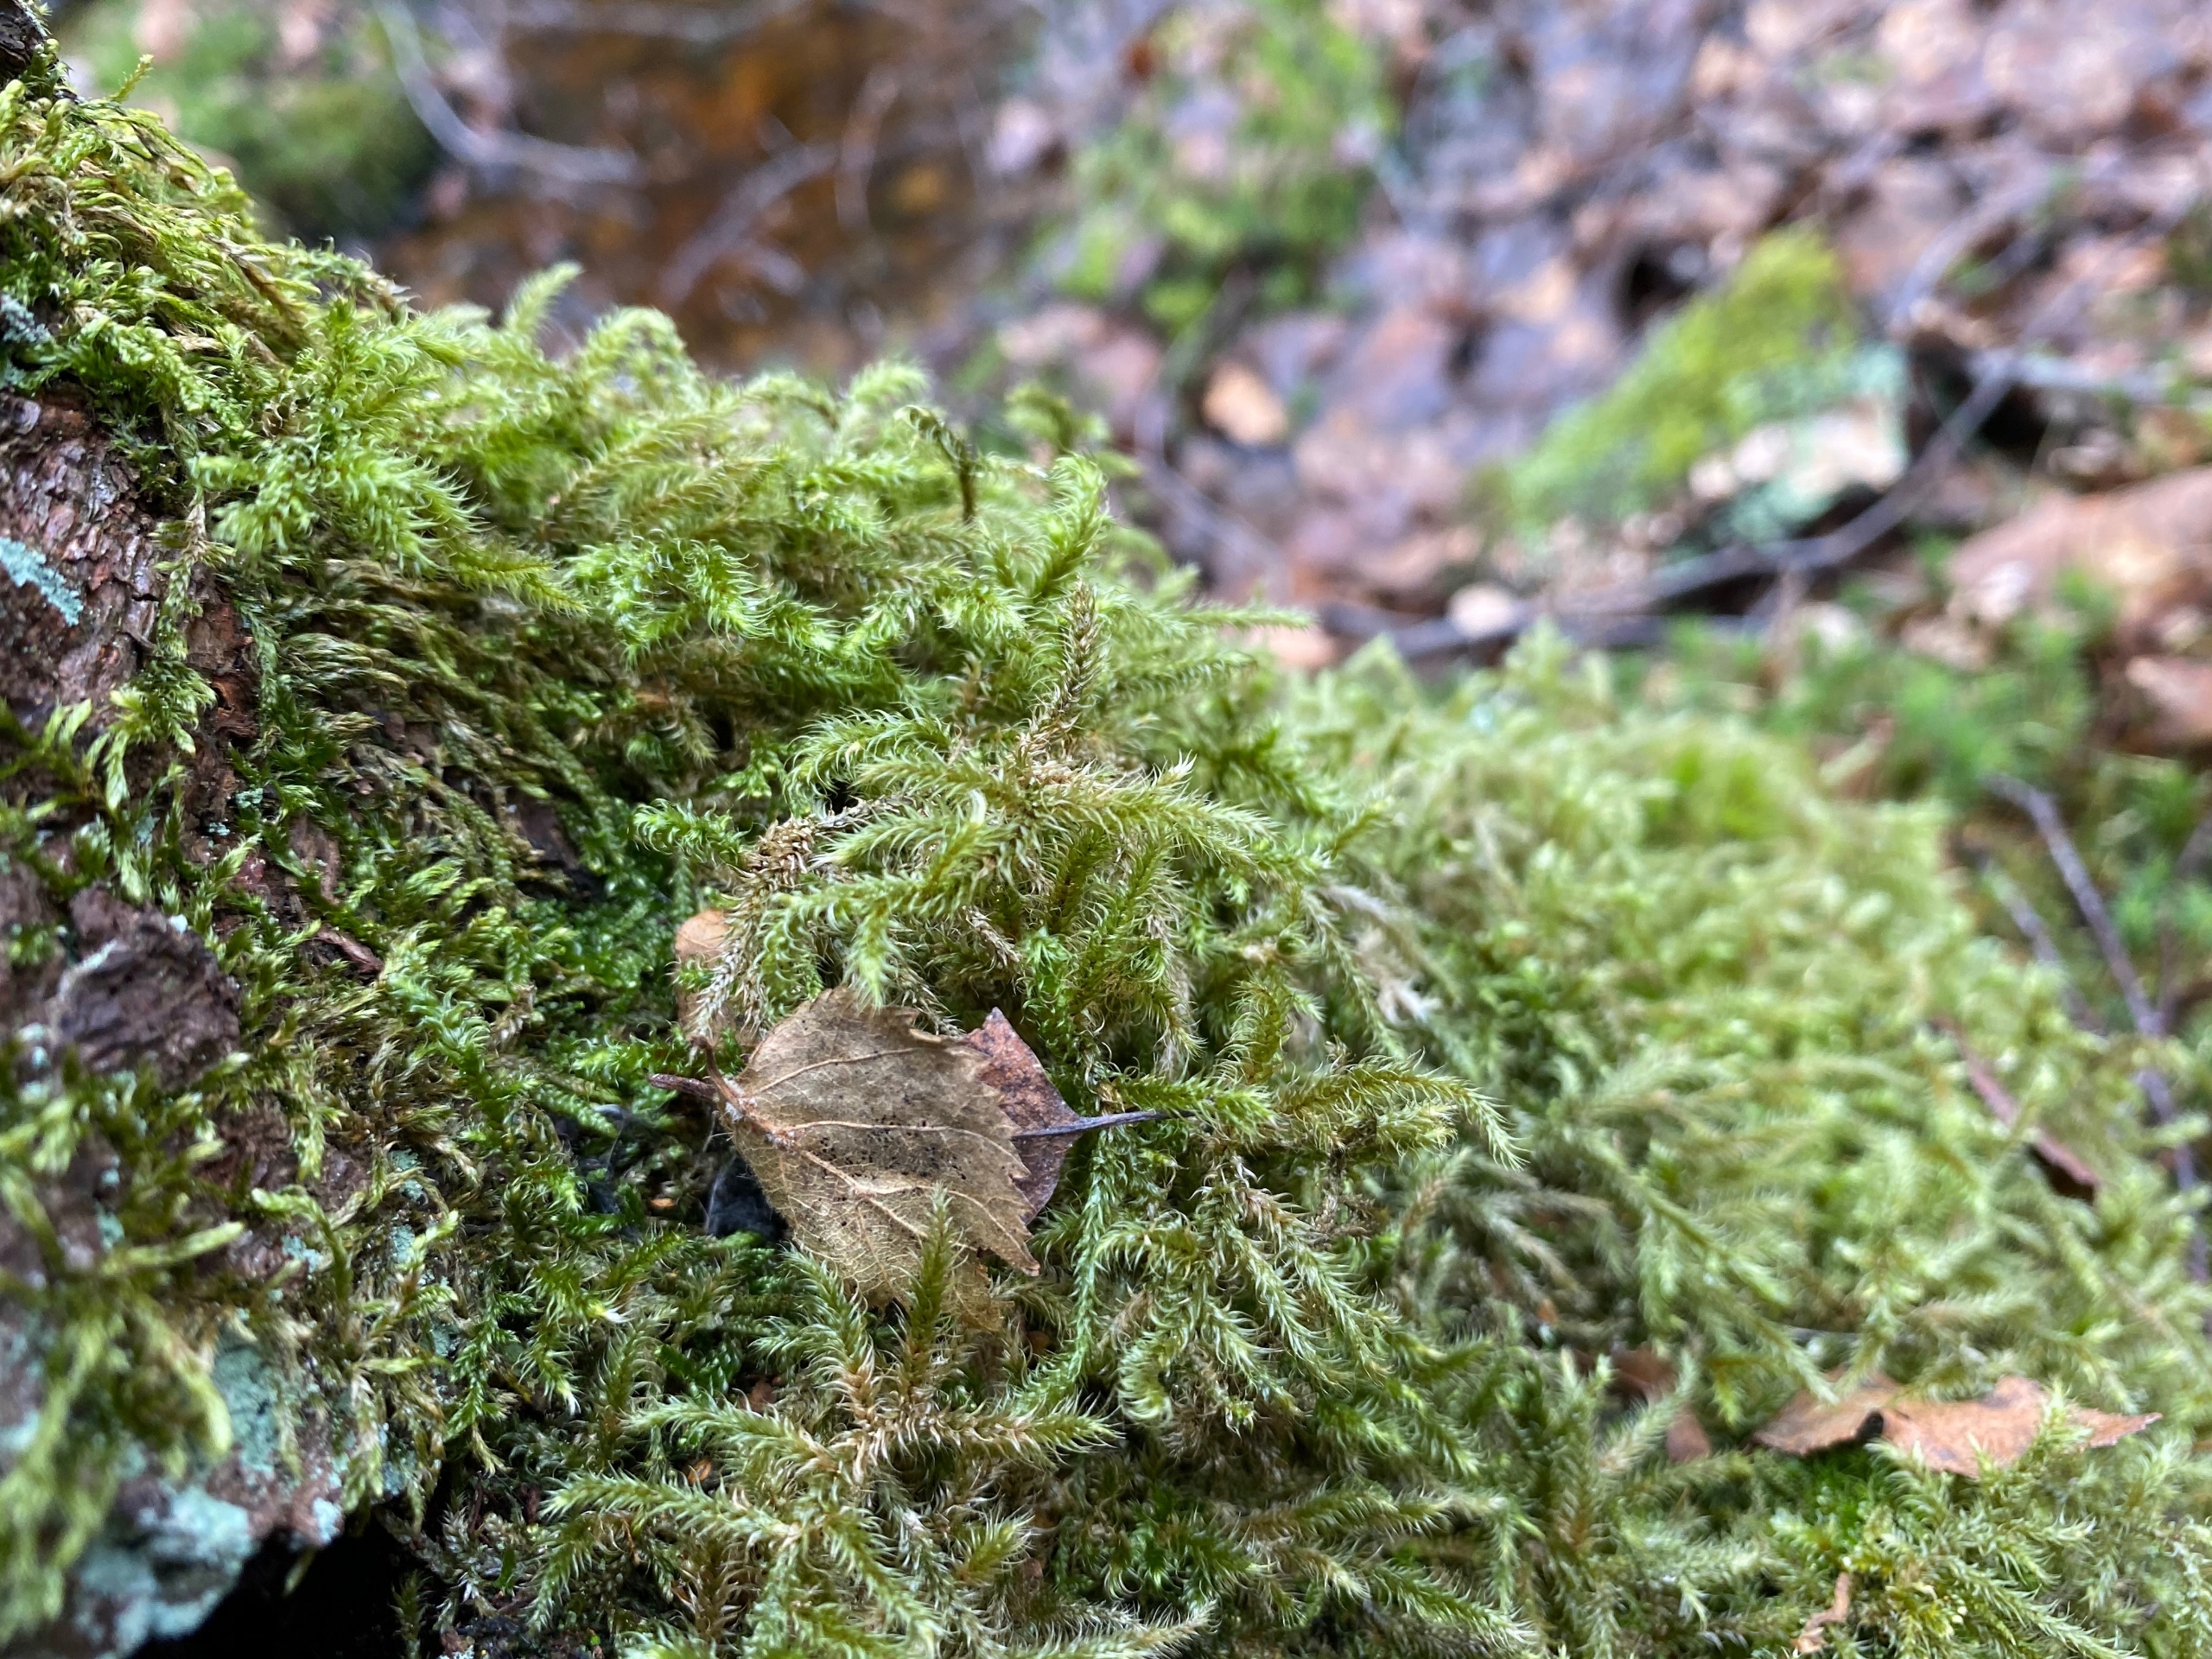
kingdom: Plantae
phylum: Bryophyta
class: Bryopsida
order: Hypnales
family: Hylocomiaceae
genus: Rhytidiadelphus
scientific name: Rhytidiadelphus loreus
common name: Ulvefod-kransemos
